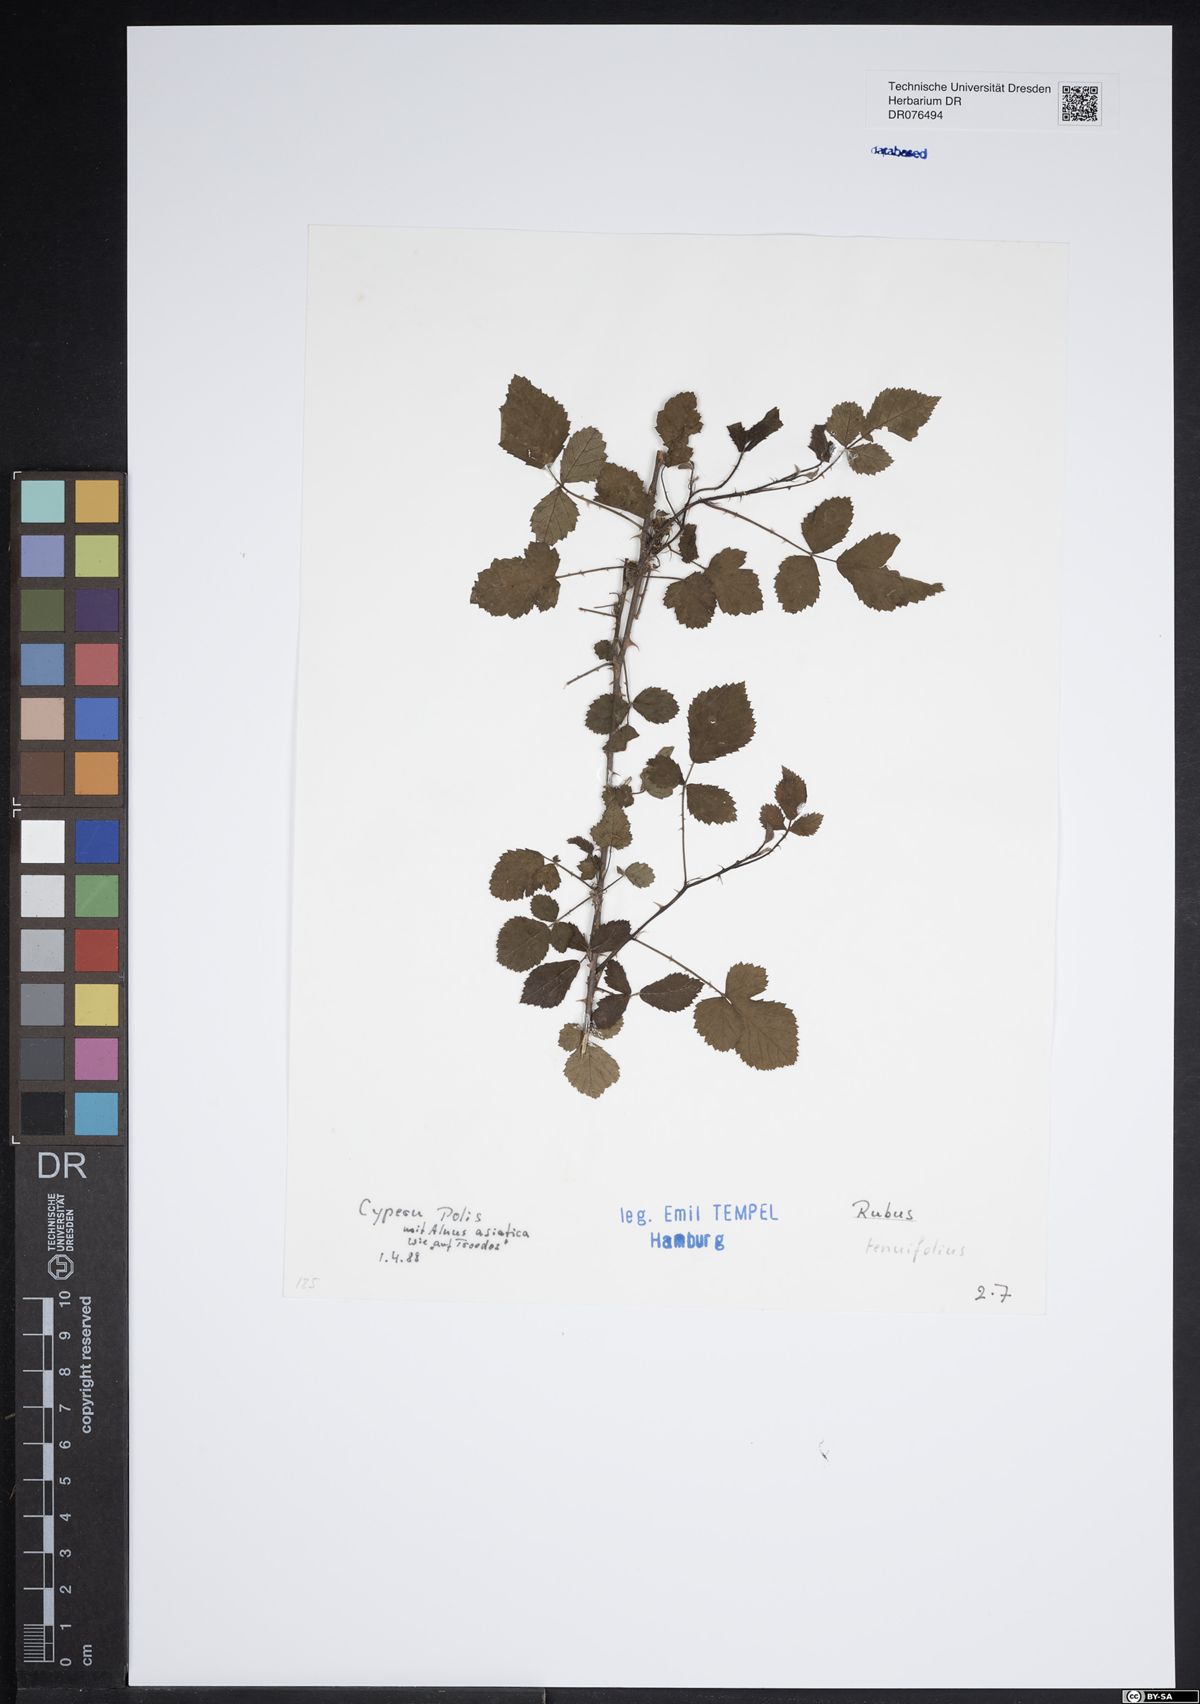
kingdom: Plantae
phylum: Tracheophyta
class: Magnoliopsida
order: Rosales
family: Rosaceae
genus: Rubus
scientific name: Rubus
